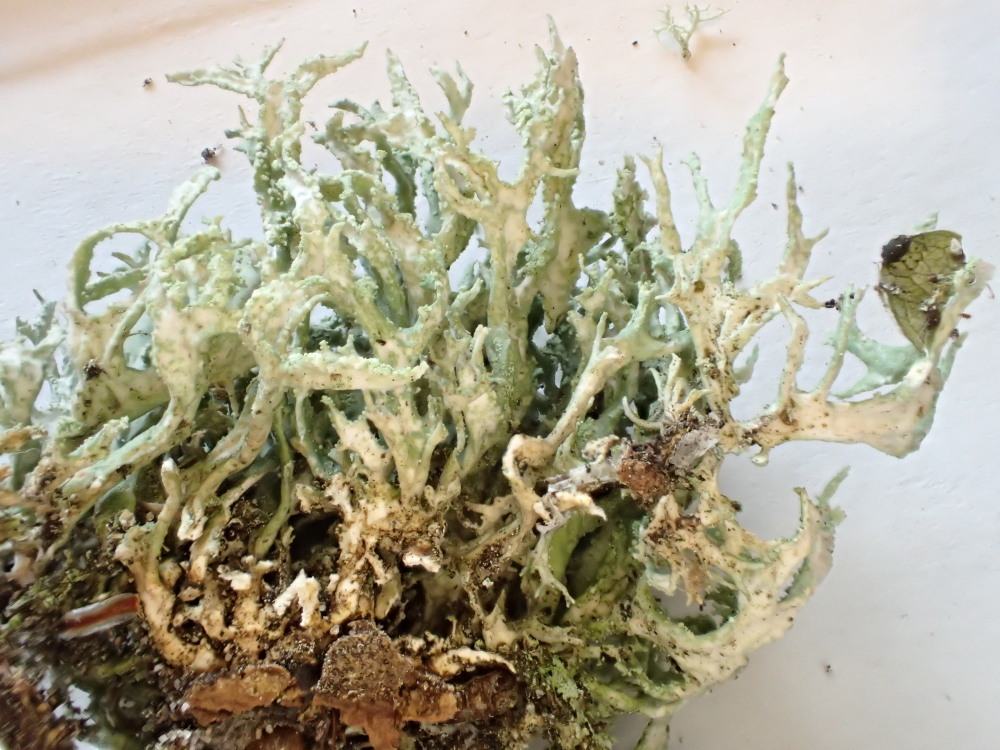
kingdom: Fungi
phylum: Ascomycota
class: Lecanoromycetes
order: Lecanorales
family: Parmeliaceae
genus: Evernia
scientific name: Evernia prunastri
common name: almindelig slåenlav
